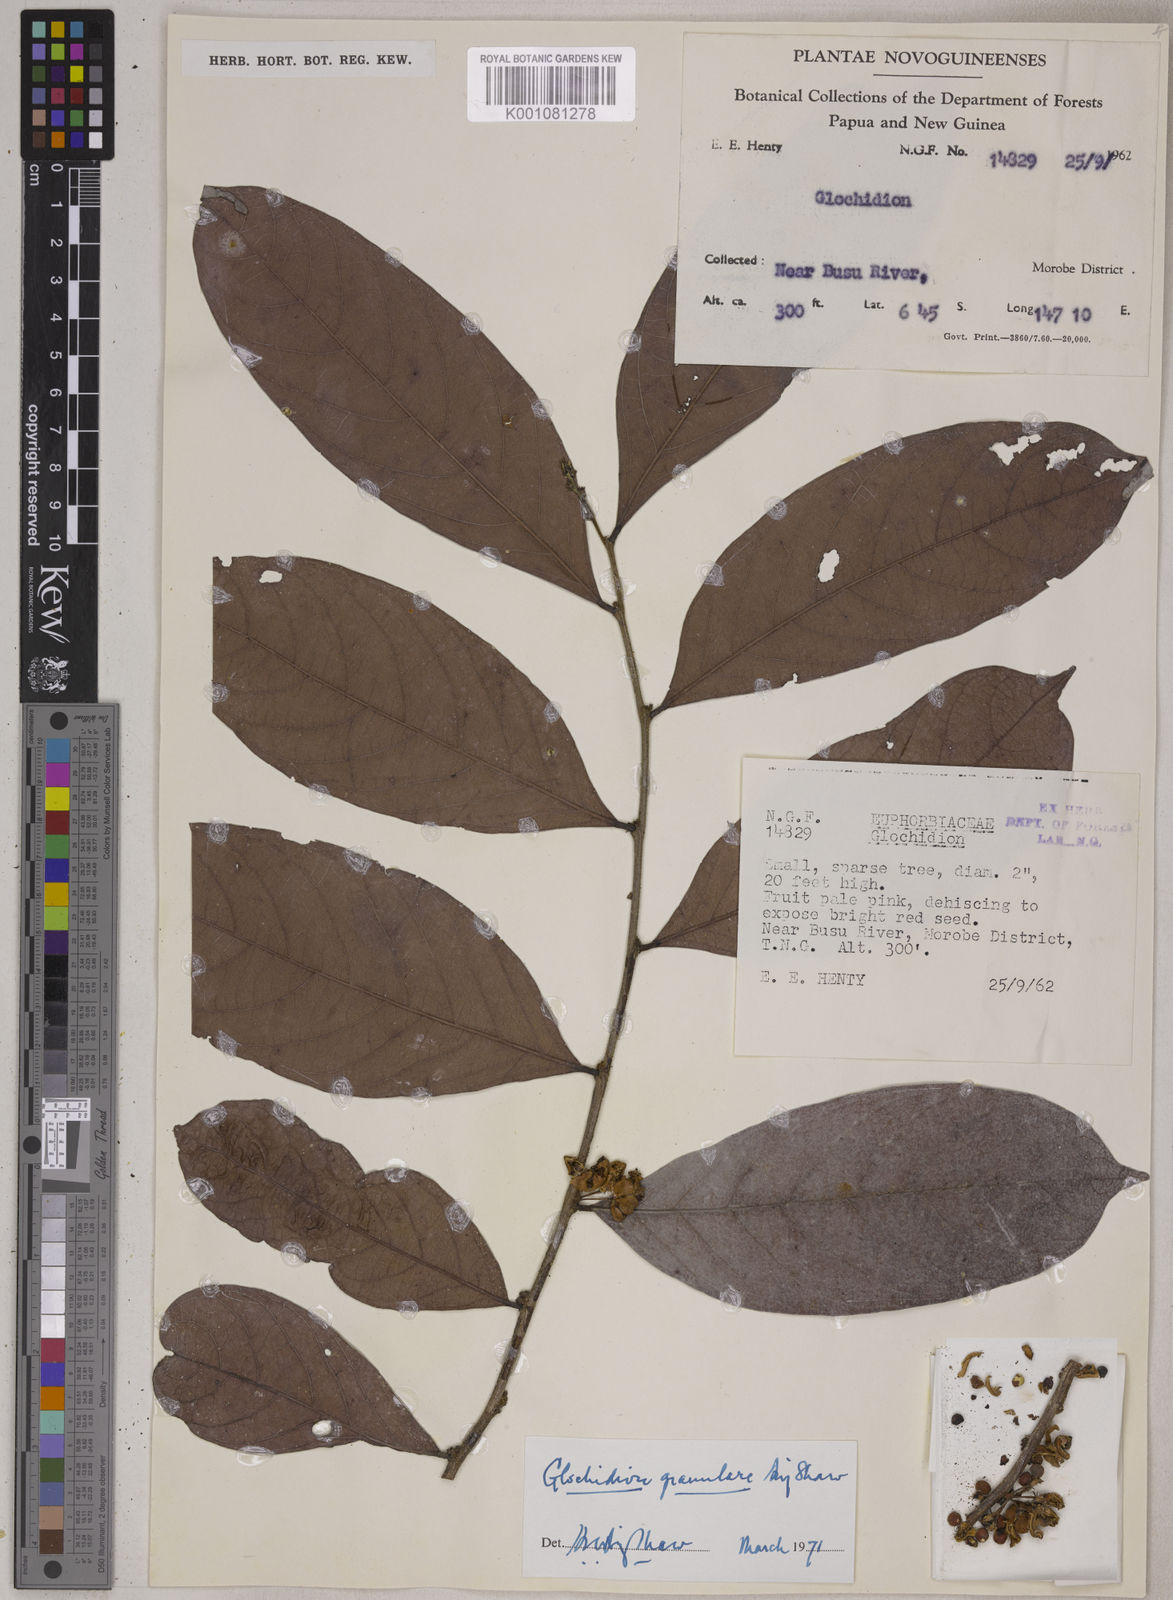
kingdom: Plantae
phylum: Tracheophyta
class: Magnoliopsida
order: Malpighiales
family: Phyllanthaceae
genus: Glochidion
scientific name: Glochidion granulare
